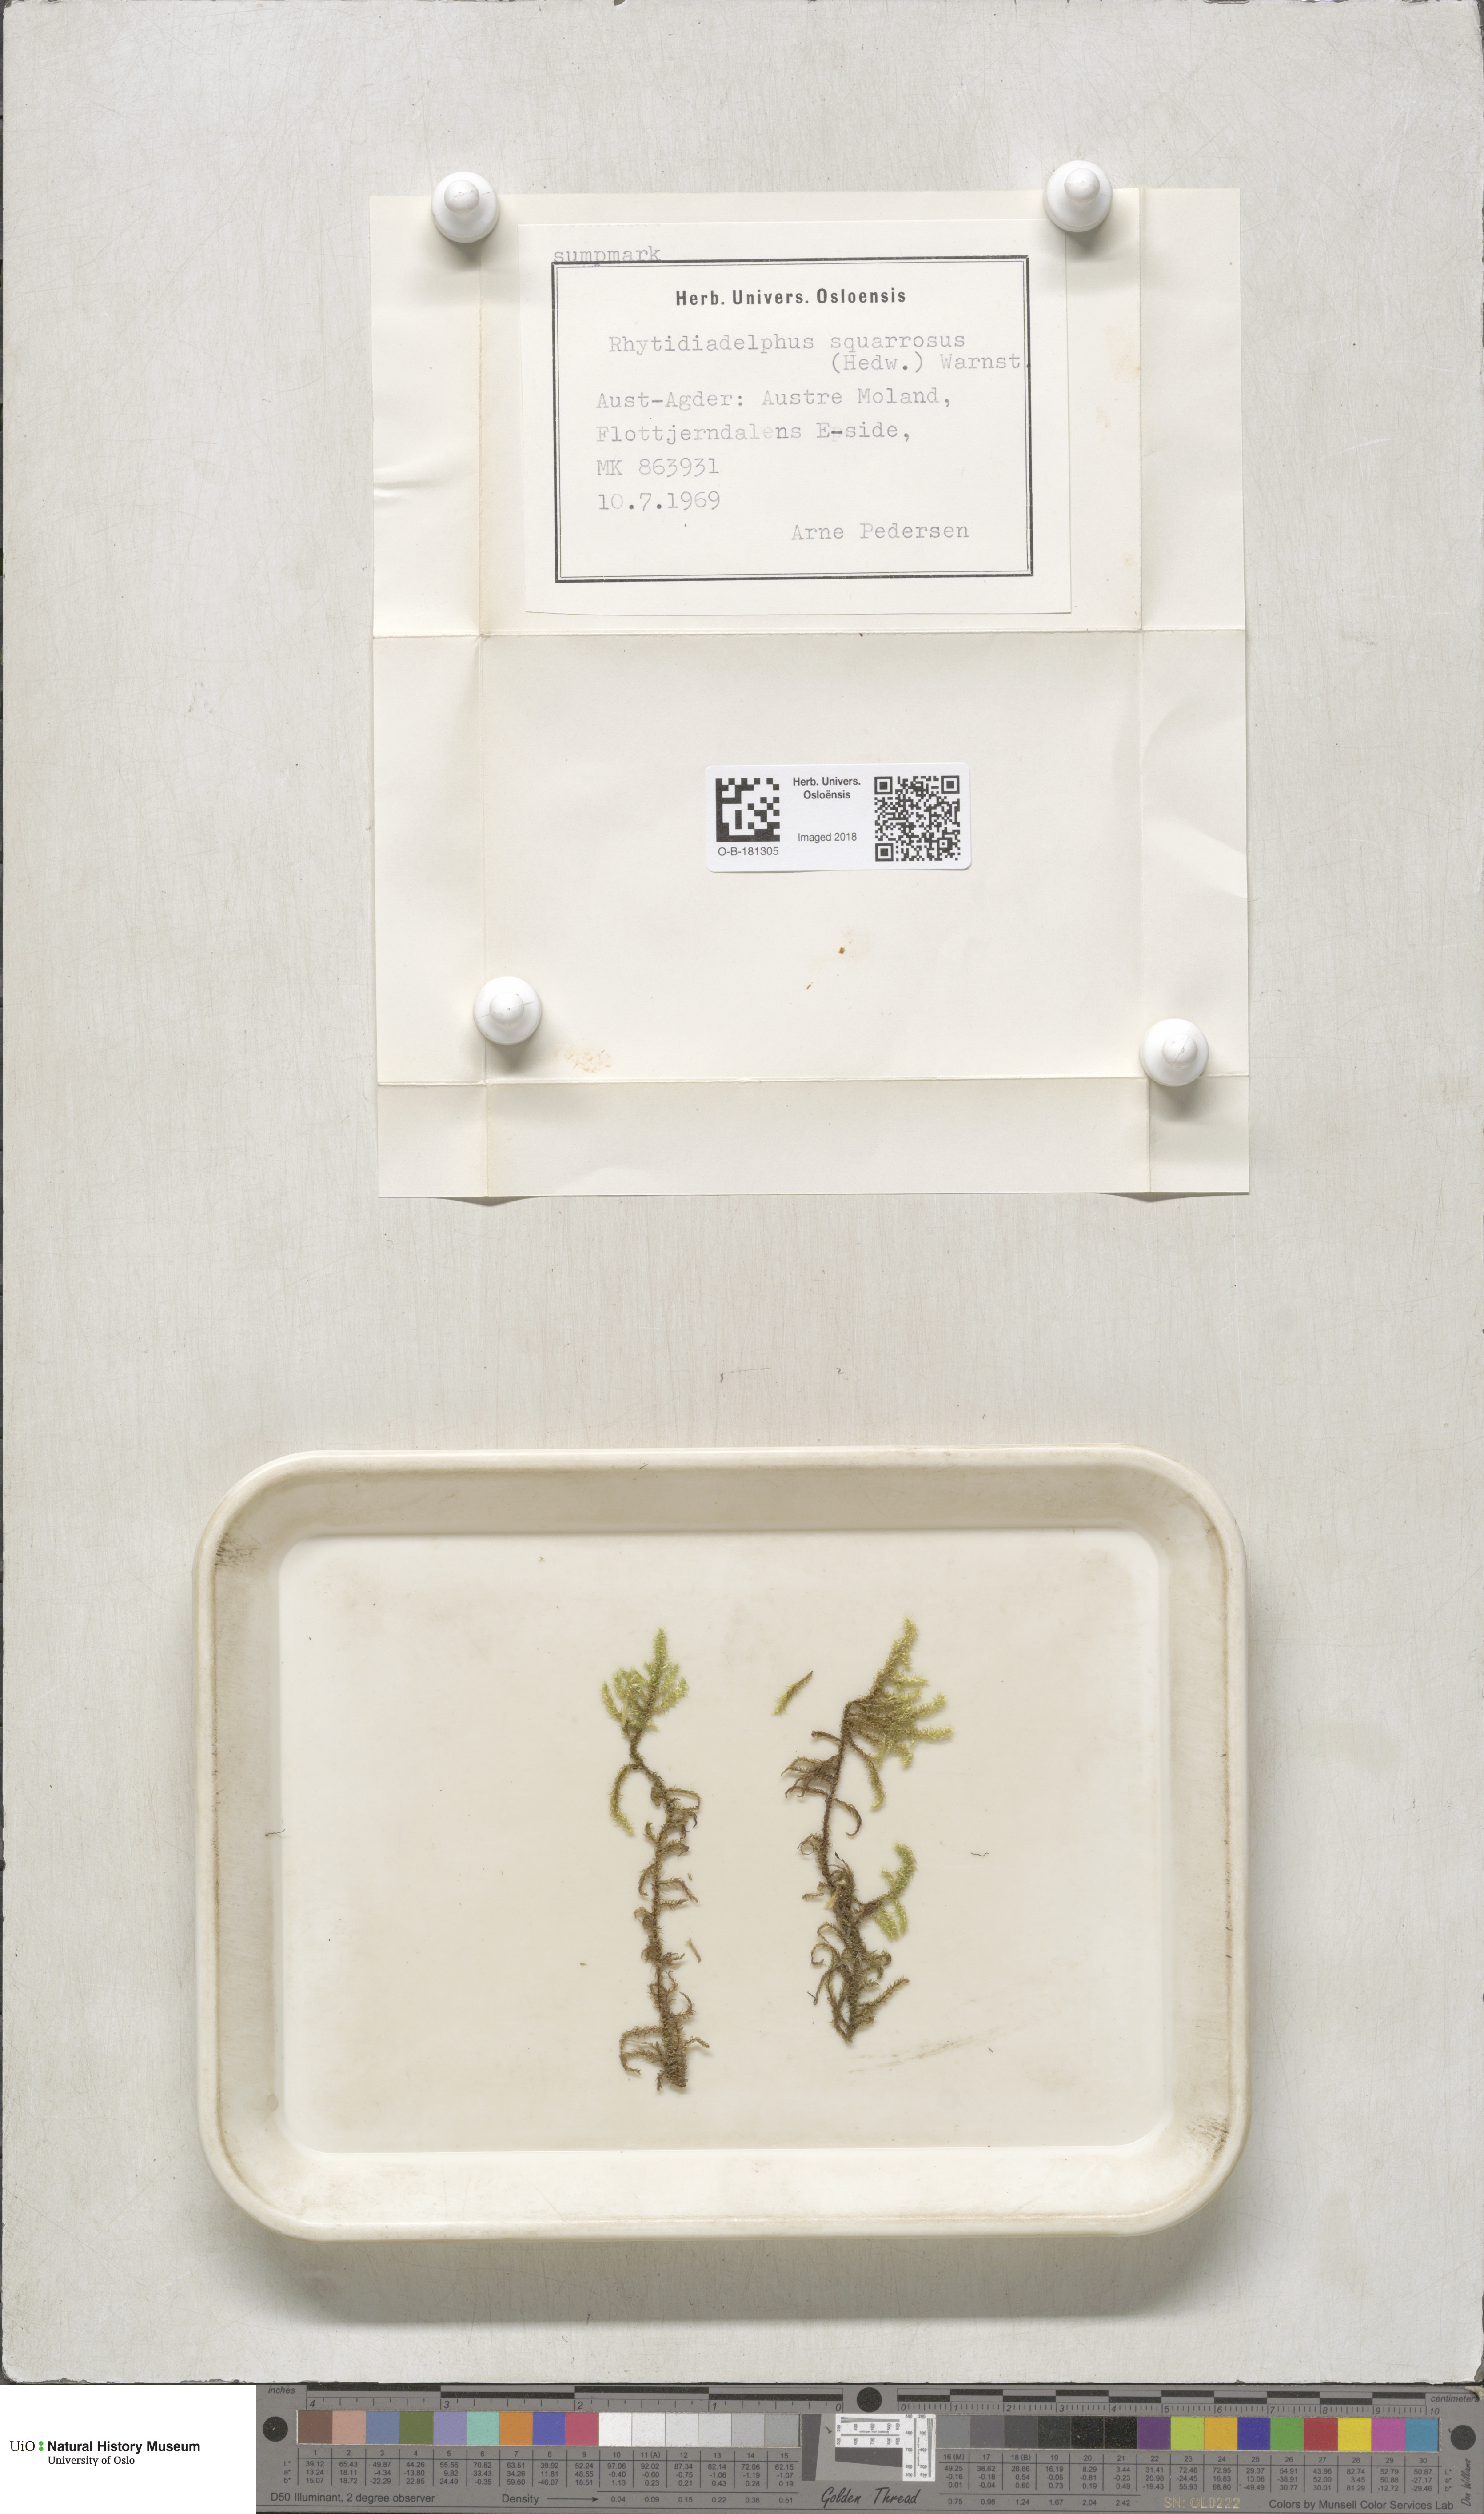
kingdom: Plantae
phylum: Bryophyta
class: Bryopsida
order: Hypnales
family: Hylocomiaceae
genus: Rhytidiadelphus
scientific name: Rhytidiadelphus squarrosus
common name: Springy turf-moss
